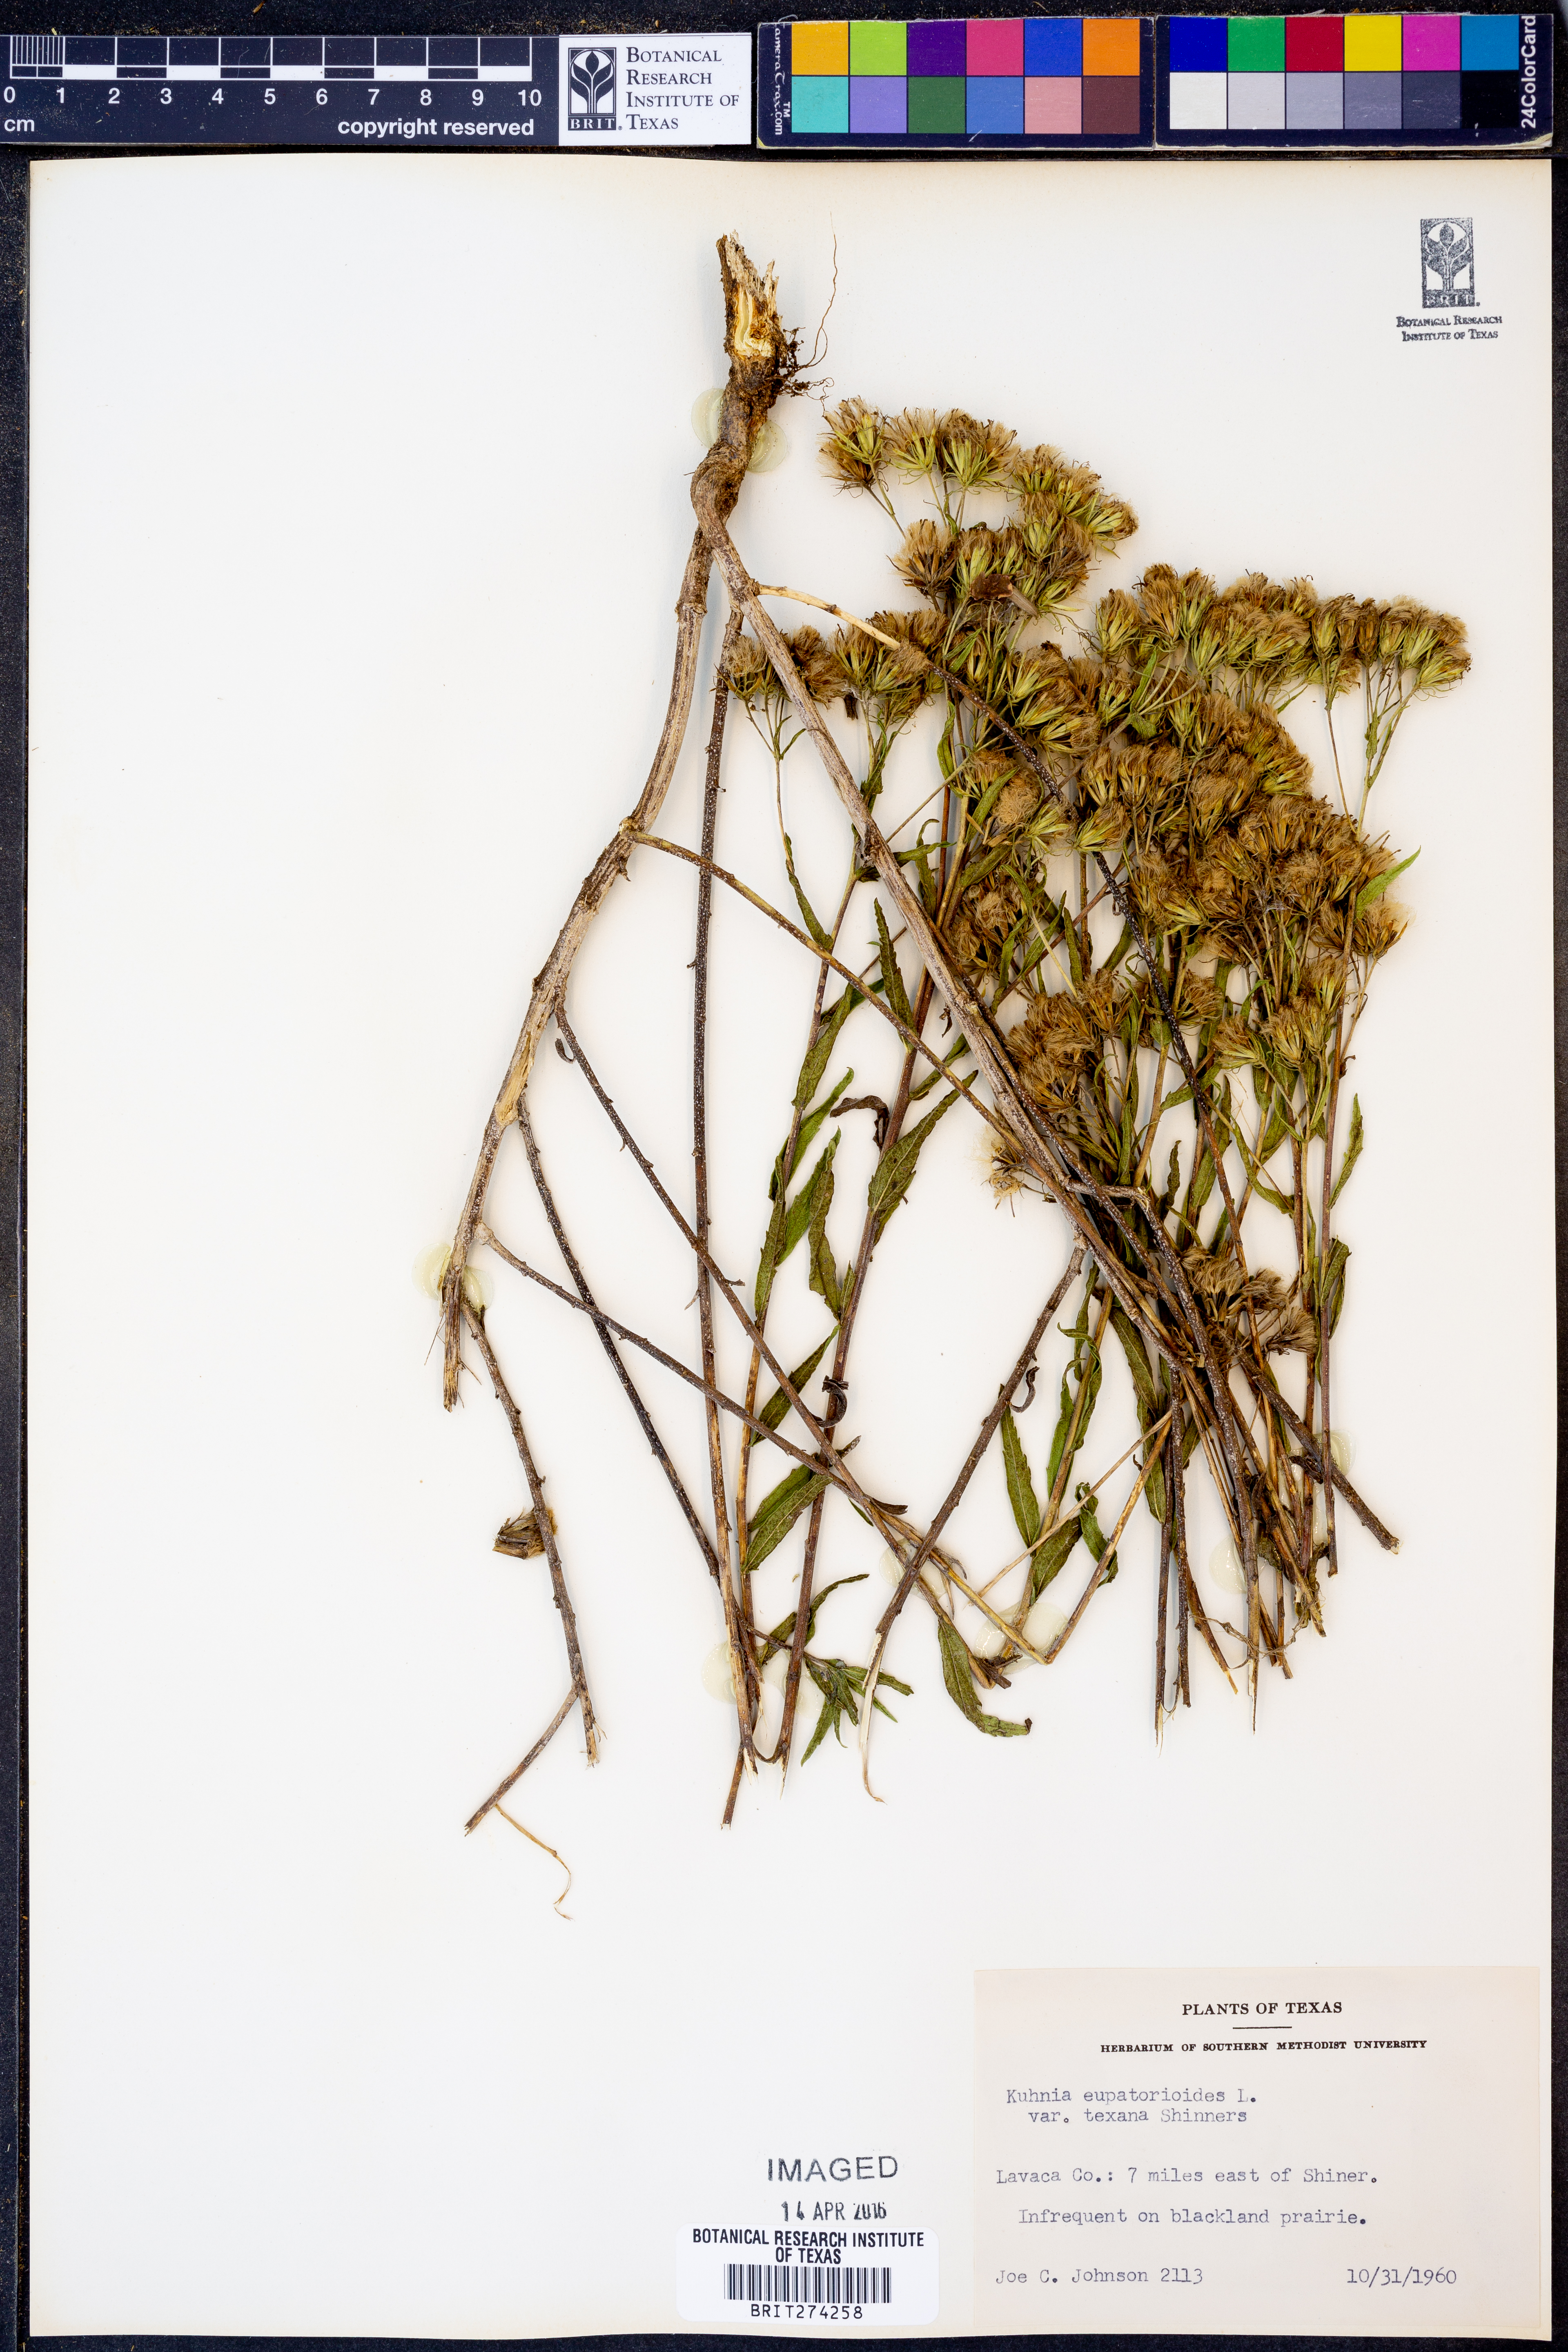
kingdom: Plantae
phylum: Tracheophyta
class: Magnoliopsida
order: Asterales
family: Asteraceae
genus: Brickellia
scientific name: Brickellia
